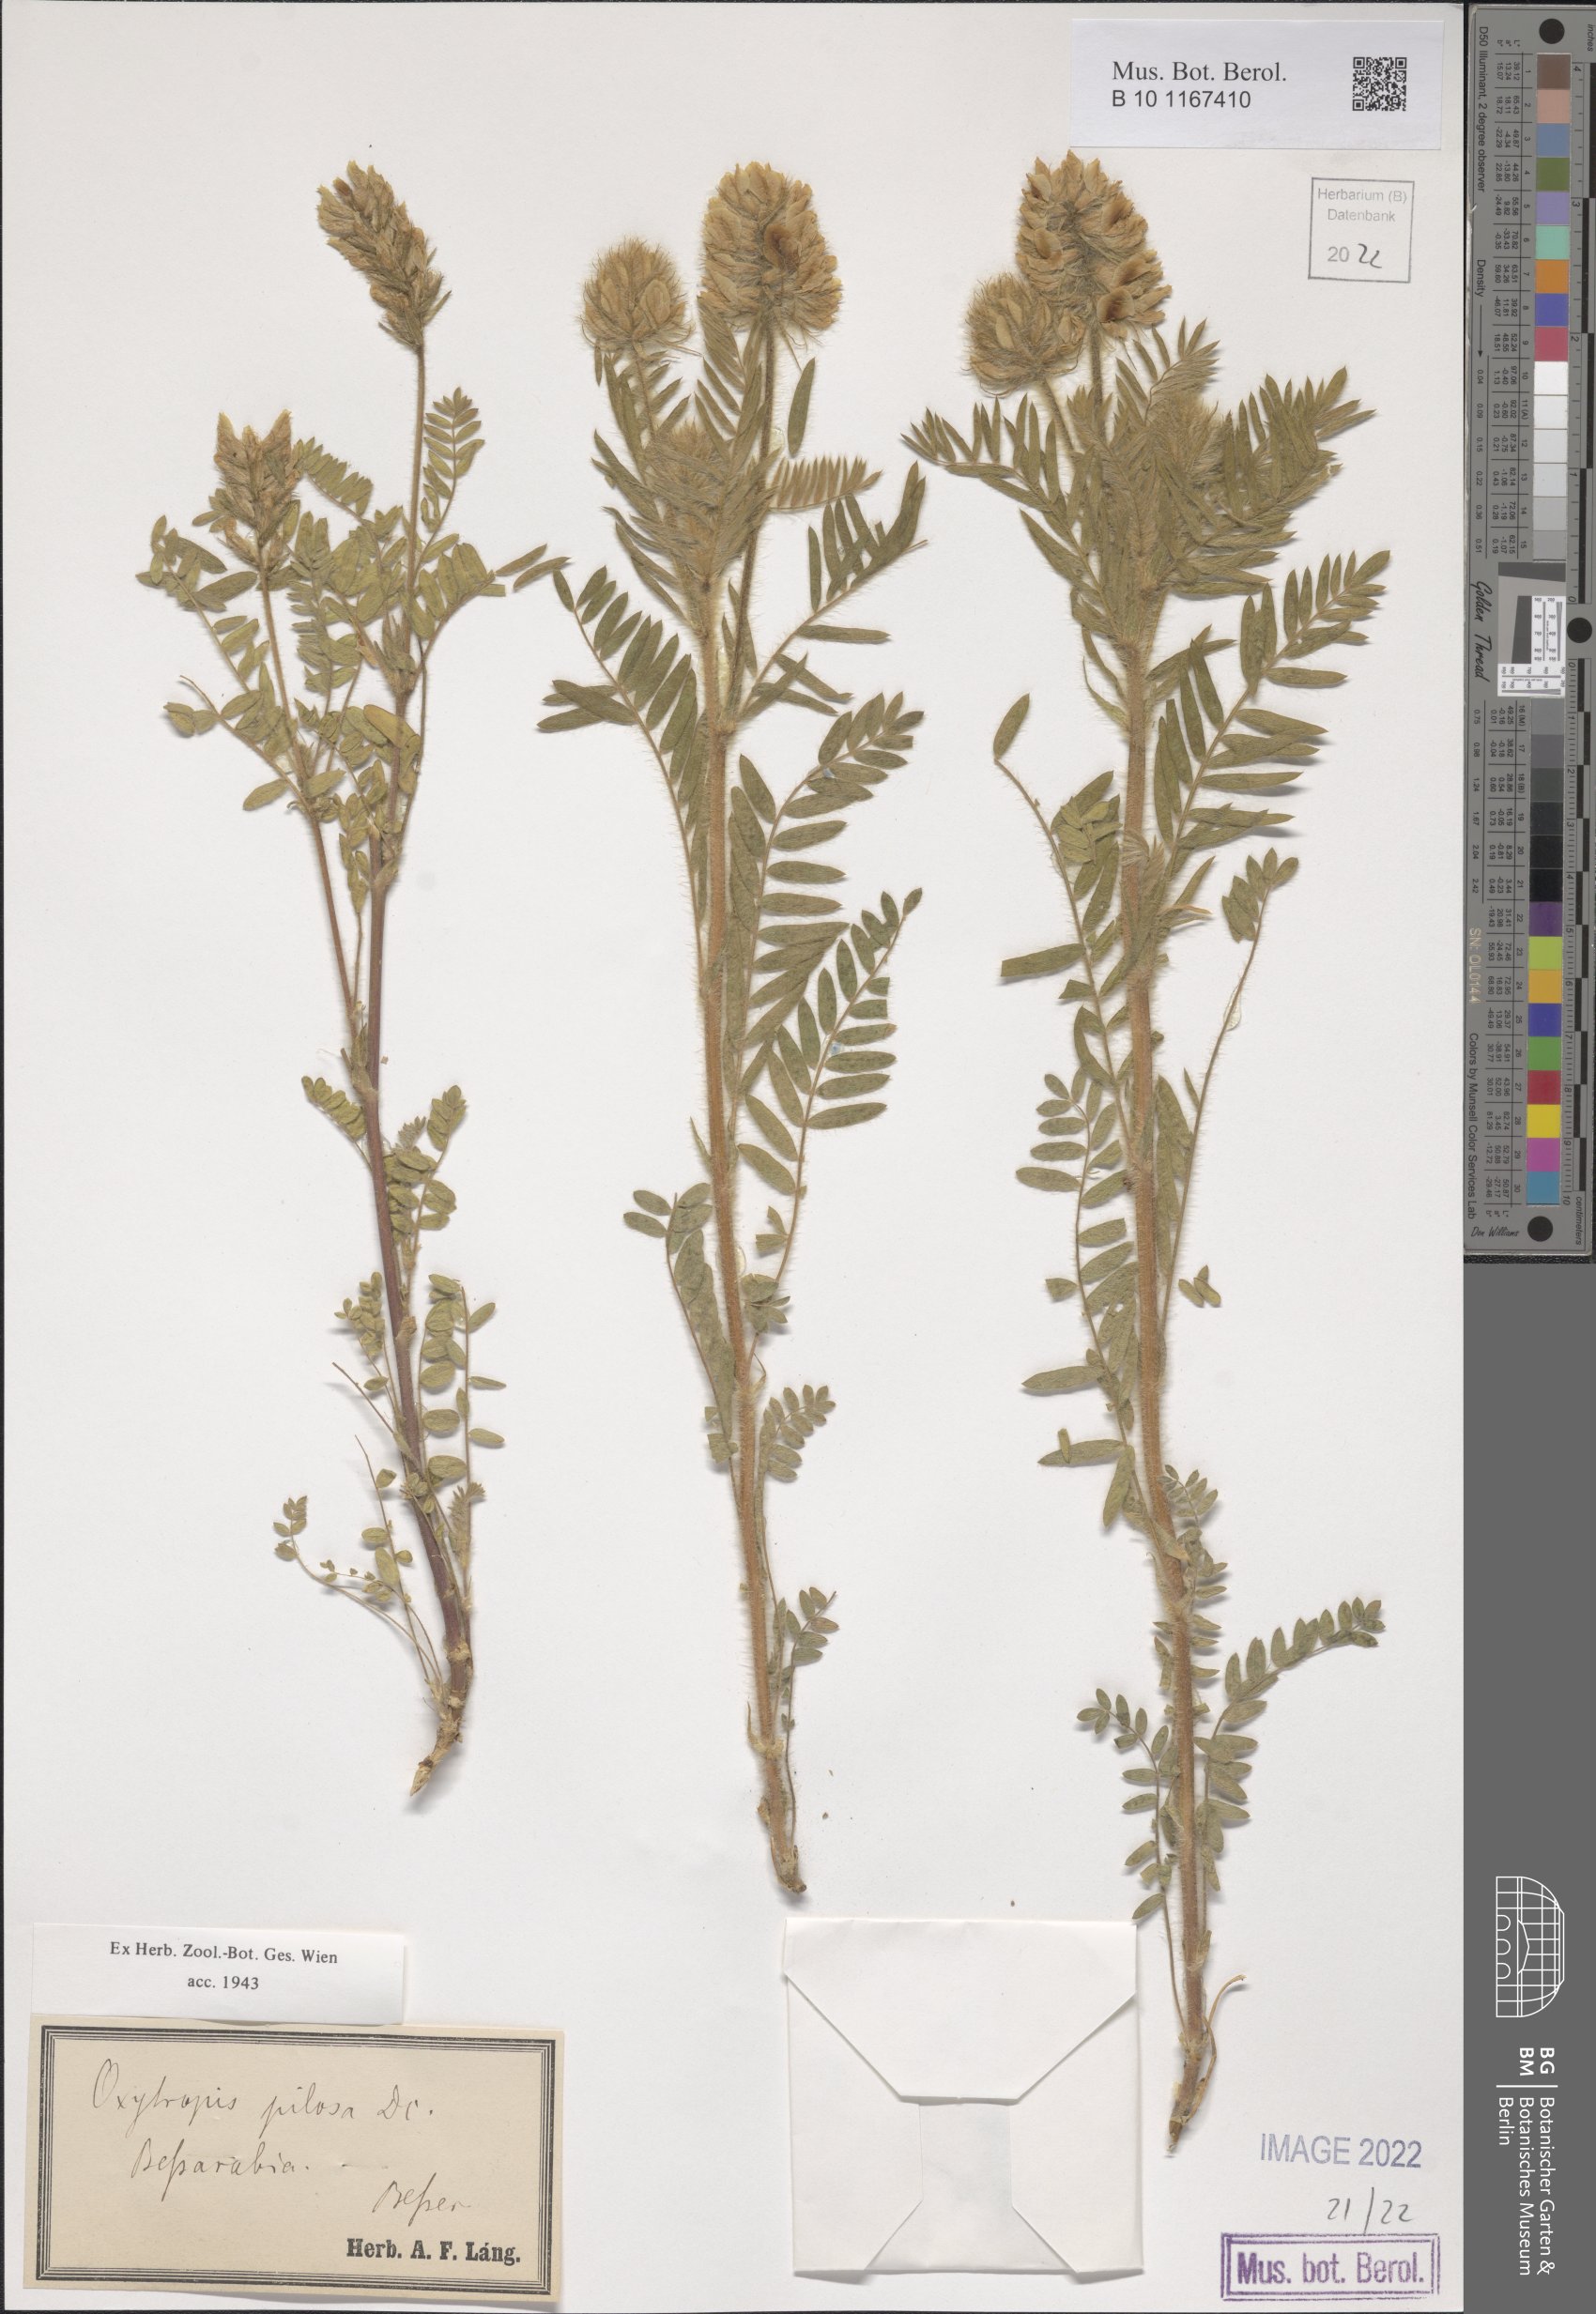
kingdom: Plantae
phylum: Tracheophyta
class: Magnoliopsida
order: Fabales
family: Fabaceae
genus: Oxytropis
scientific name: Oxytropis pilosa
